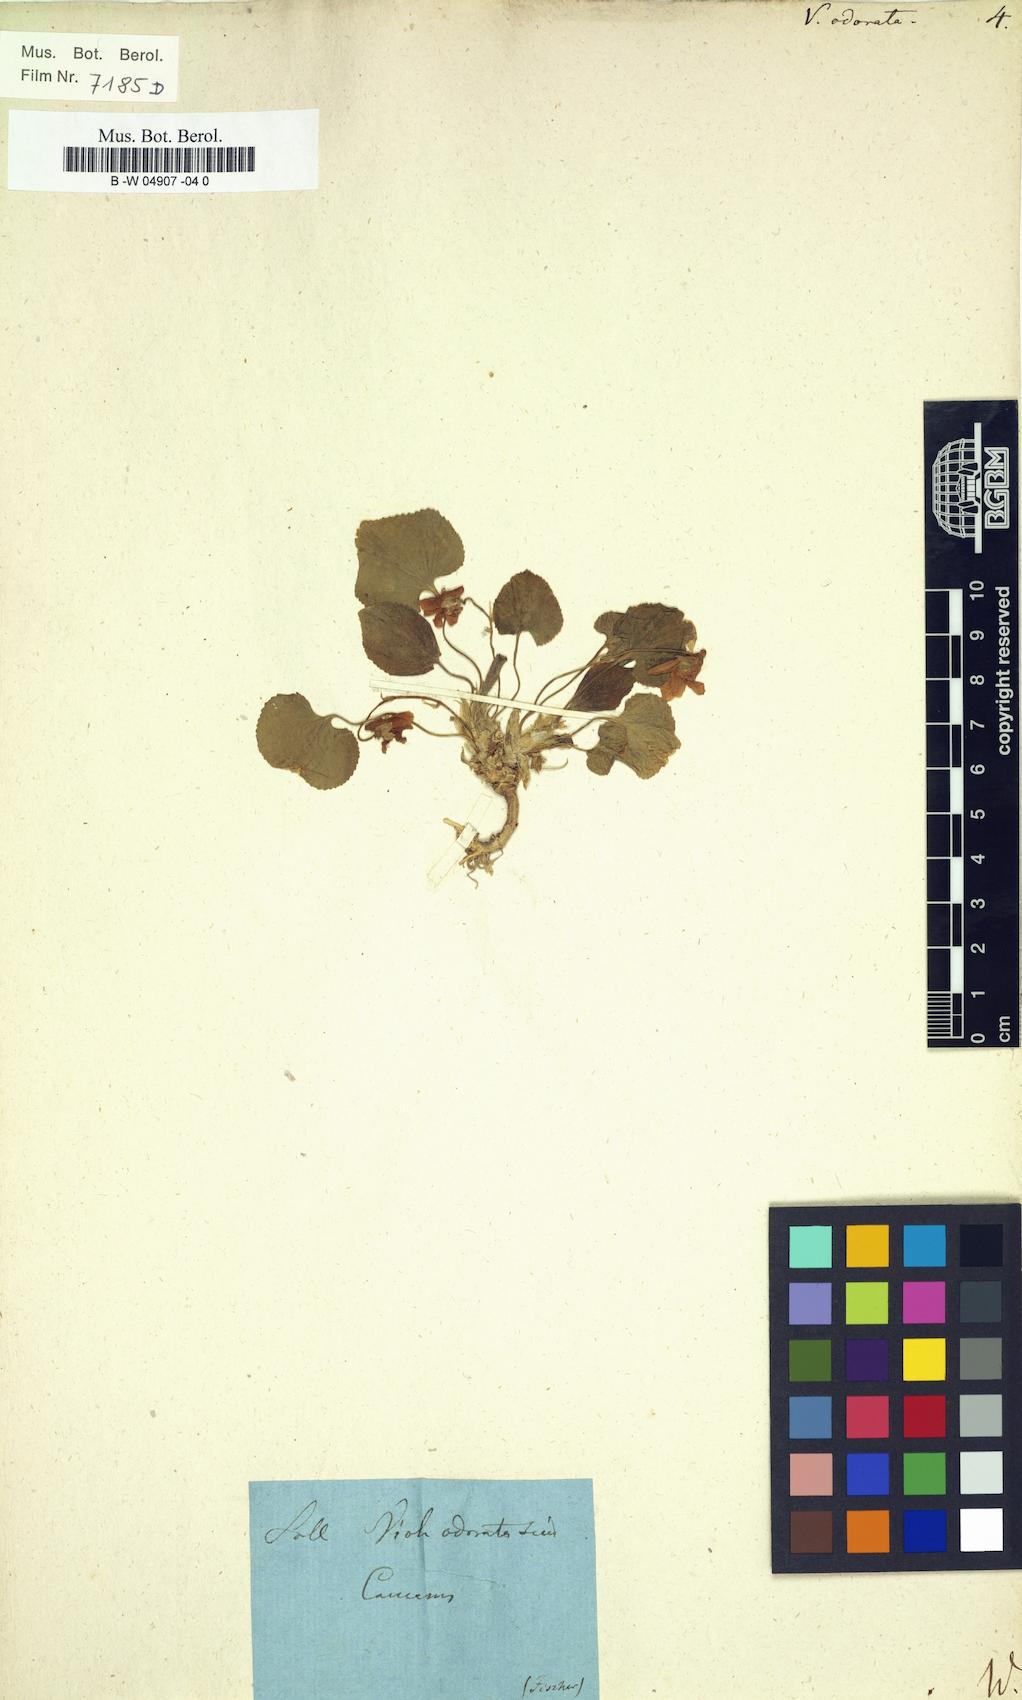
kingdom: Plantae
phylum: Tracheophyta
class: Magnoliopsida
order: Malpighiales
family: Violaceae
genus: Viola
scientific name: Viola odorata
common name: Sweet violet
